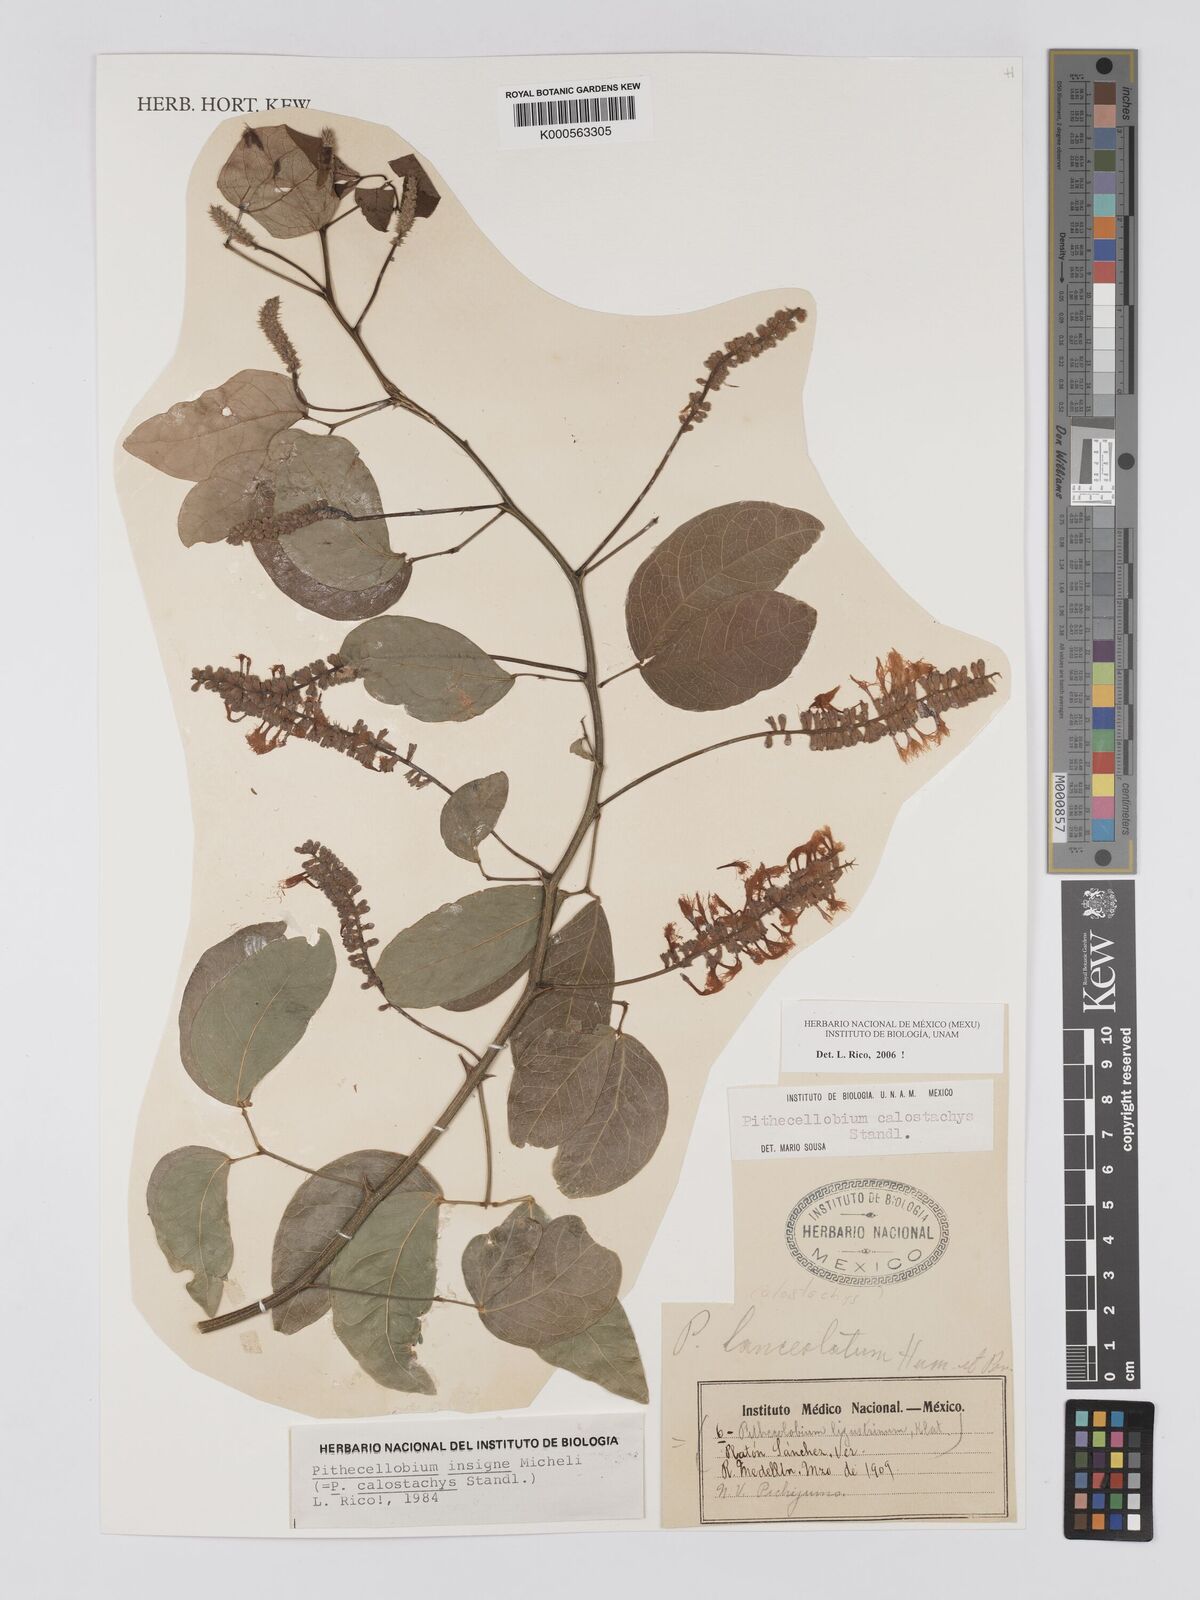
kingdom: Plantae
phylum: Tracheophyta
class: Magnoliopsida
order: Fabales
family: Fabaceae
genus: Pithecellobium
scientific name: Pithecellobium lanceolatum
